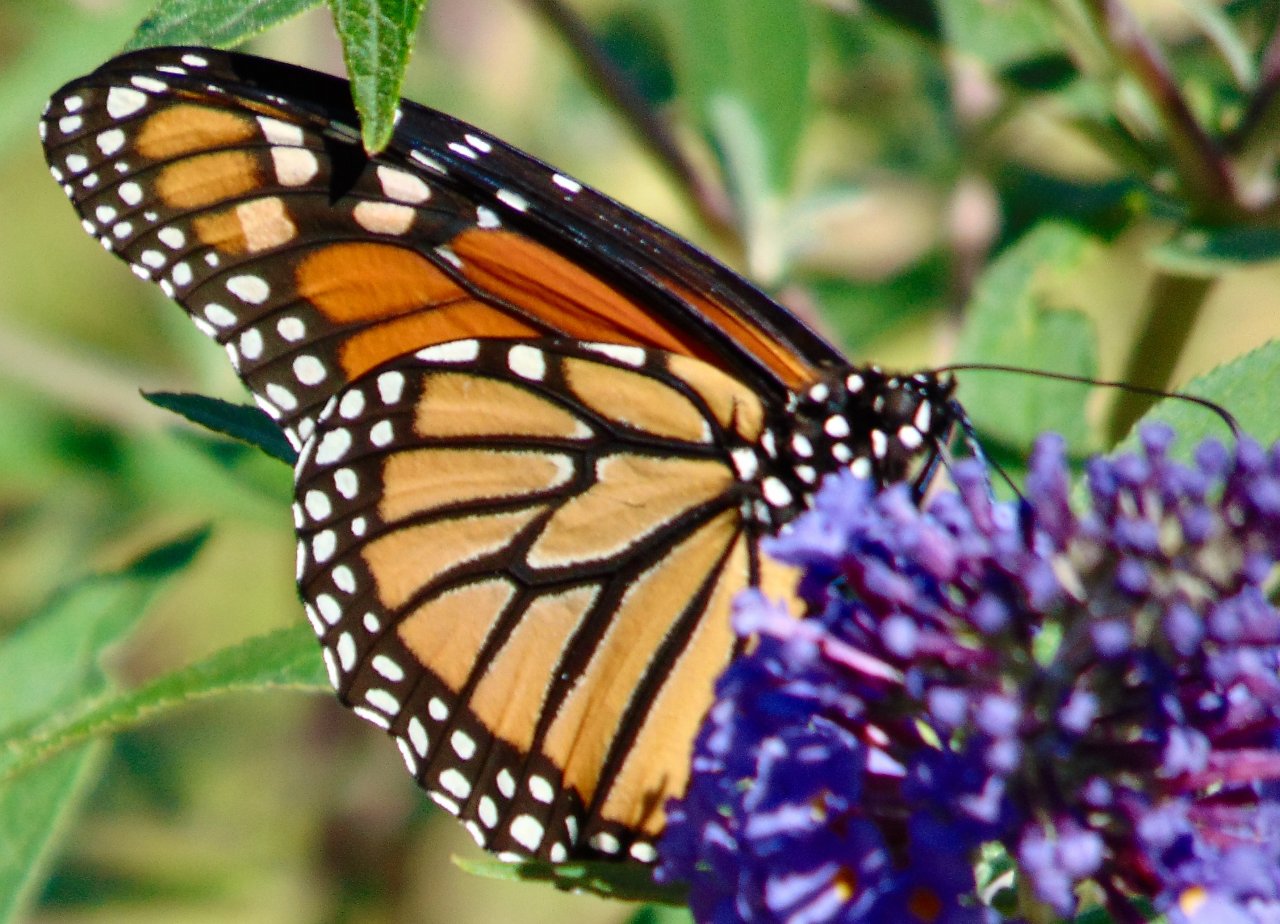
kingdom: Animalia
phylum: Arthropoda
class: Insecta
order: Lepidoptera
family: Nymphalidae
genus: Danaus
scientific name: Danaus plexippus
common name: Monarch
